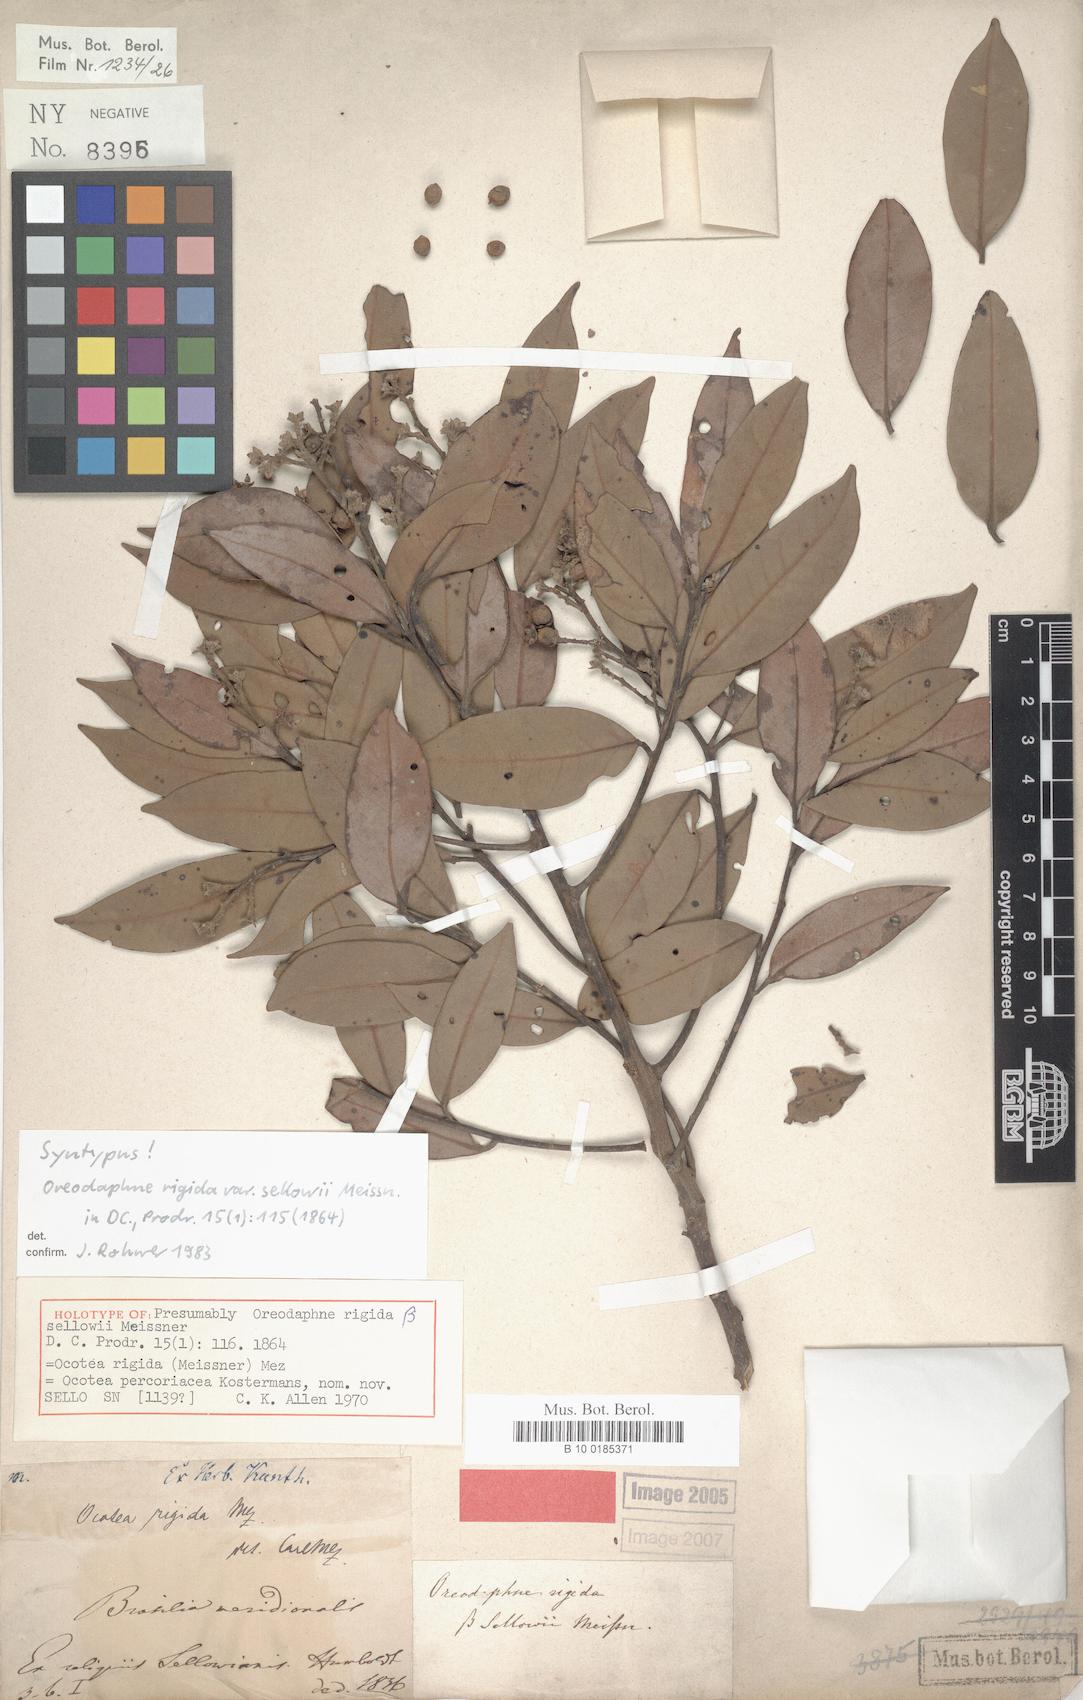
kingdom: Plantae
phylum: Tracheophyta
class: Magnoliopsida
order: Laurales
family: Lauraceae
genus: Ocotea
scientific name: Ocotea percoriacea
